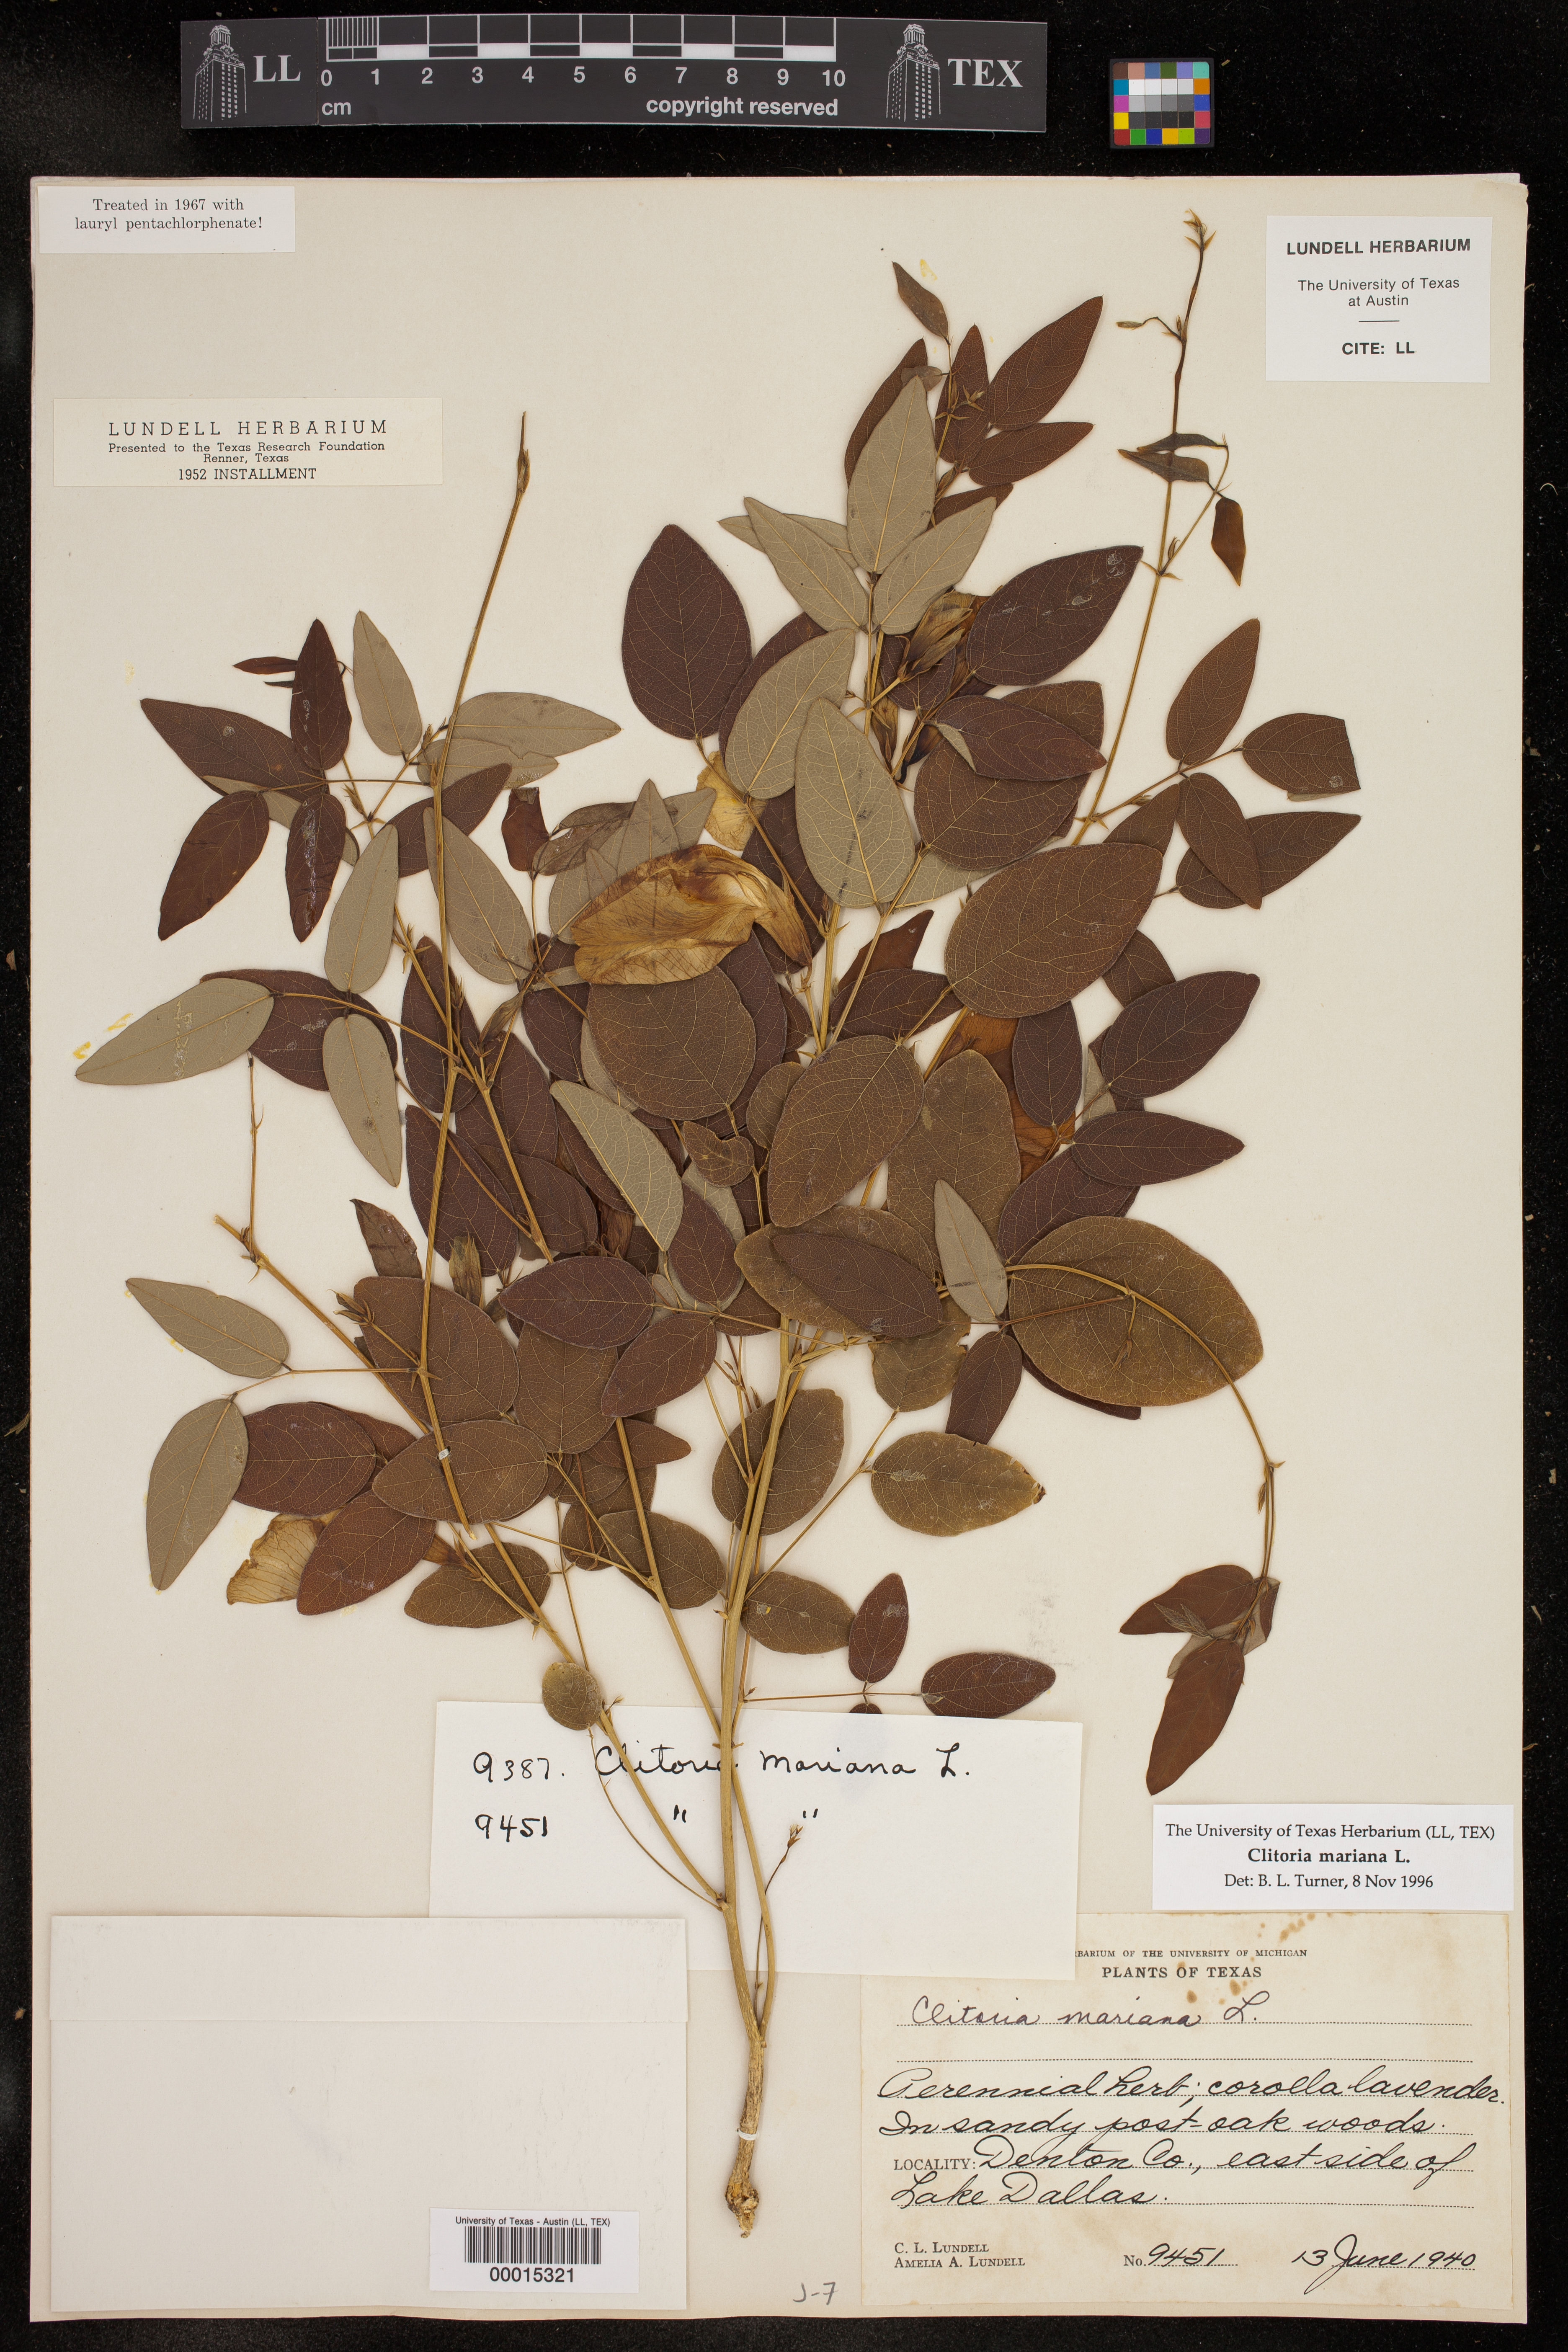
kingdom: Plantae
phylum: Tracheophyta
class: Magnoliopsida
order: Fabales
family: Fabaceae
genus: Clitoria
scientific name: Clitoria mariana
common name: Butterfly-pea
